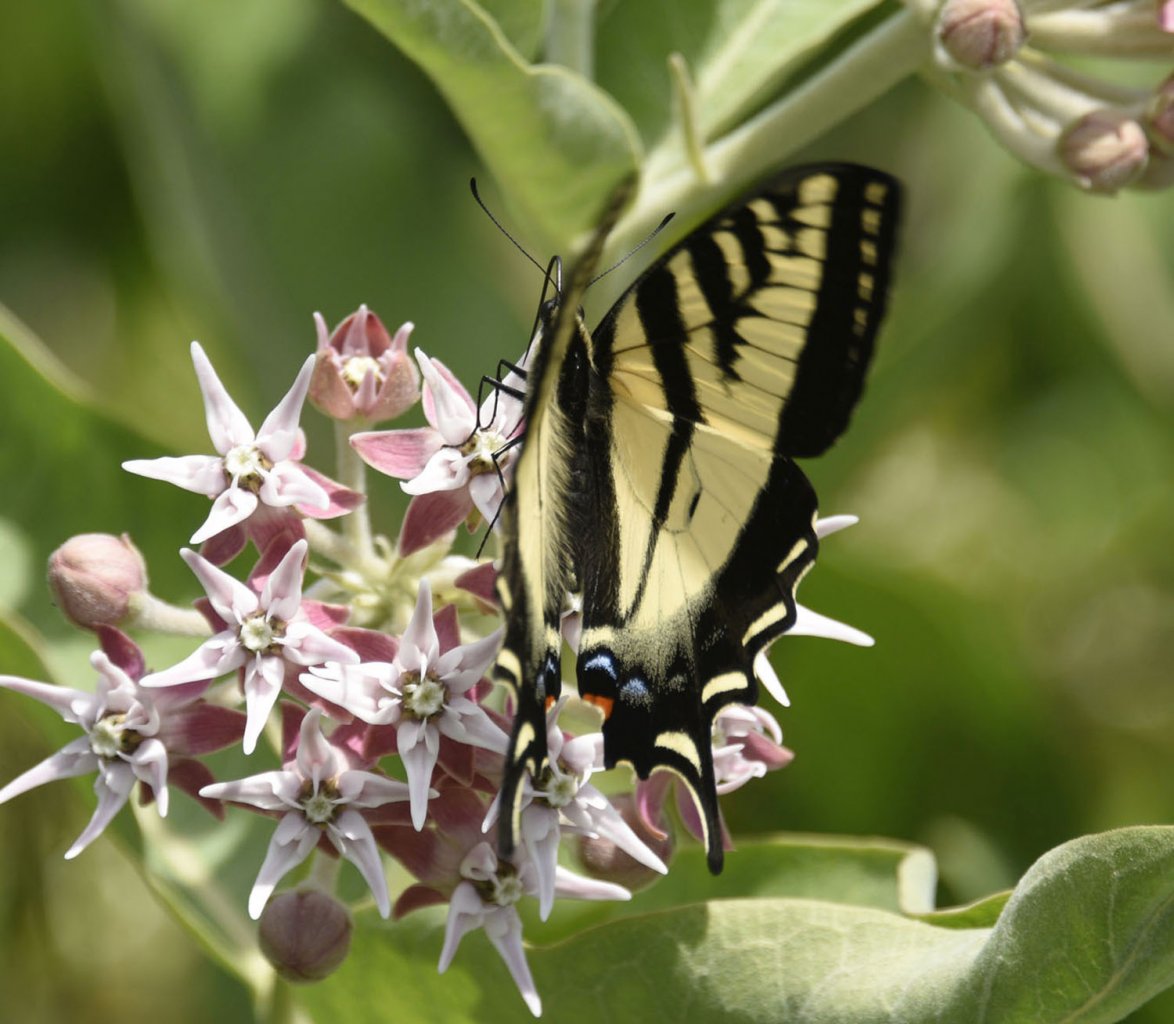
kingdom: Animalia
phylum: Arthropoda
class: Insecta
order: Lepidoptera
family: Papilionidae
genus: Pterourus
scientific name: Pterourus rutulus
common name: Western Tiger Swallowtail
